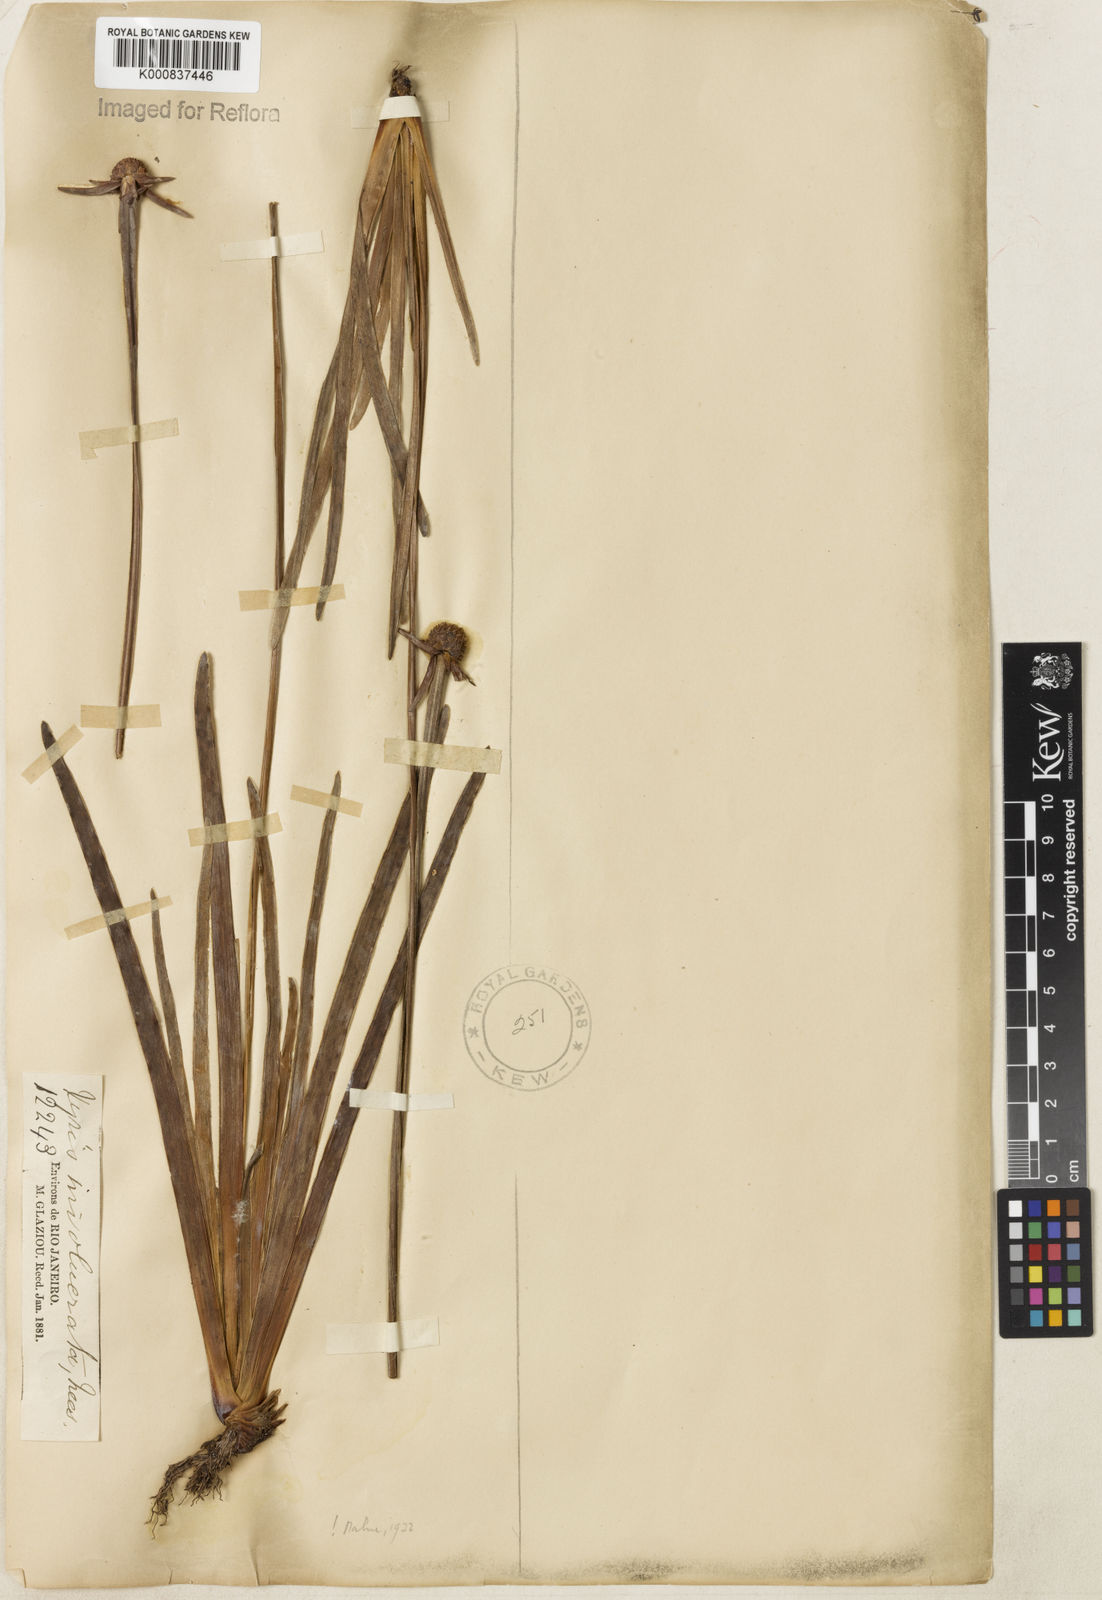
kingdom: Plantae
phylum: Tracheophyta
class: Liliopsida
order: Poales
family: Xyridaceae
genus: Xyris
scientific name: Xyris involucrata
